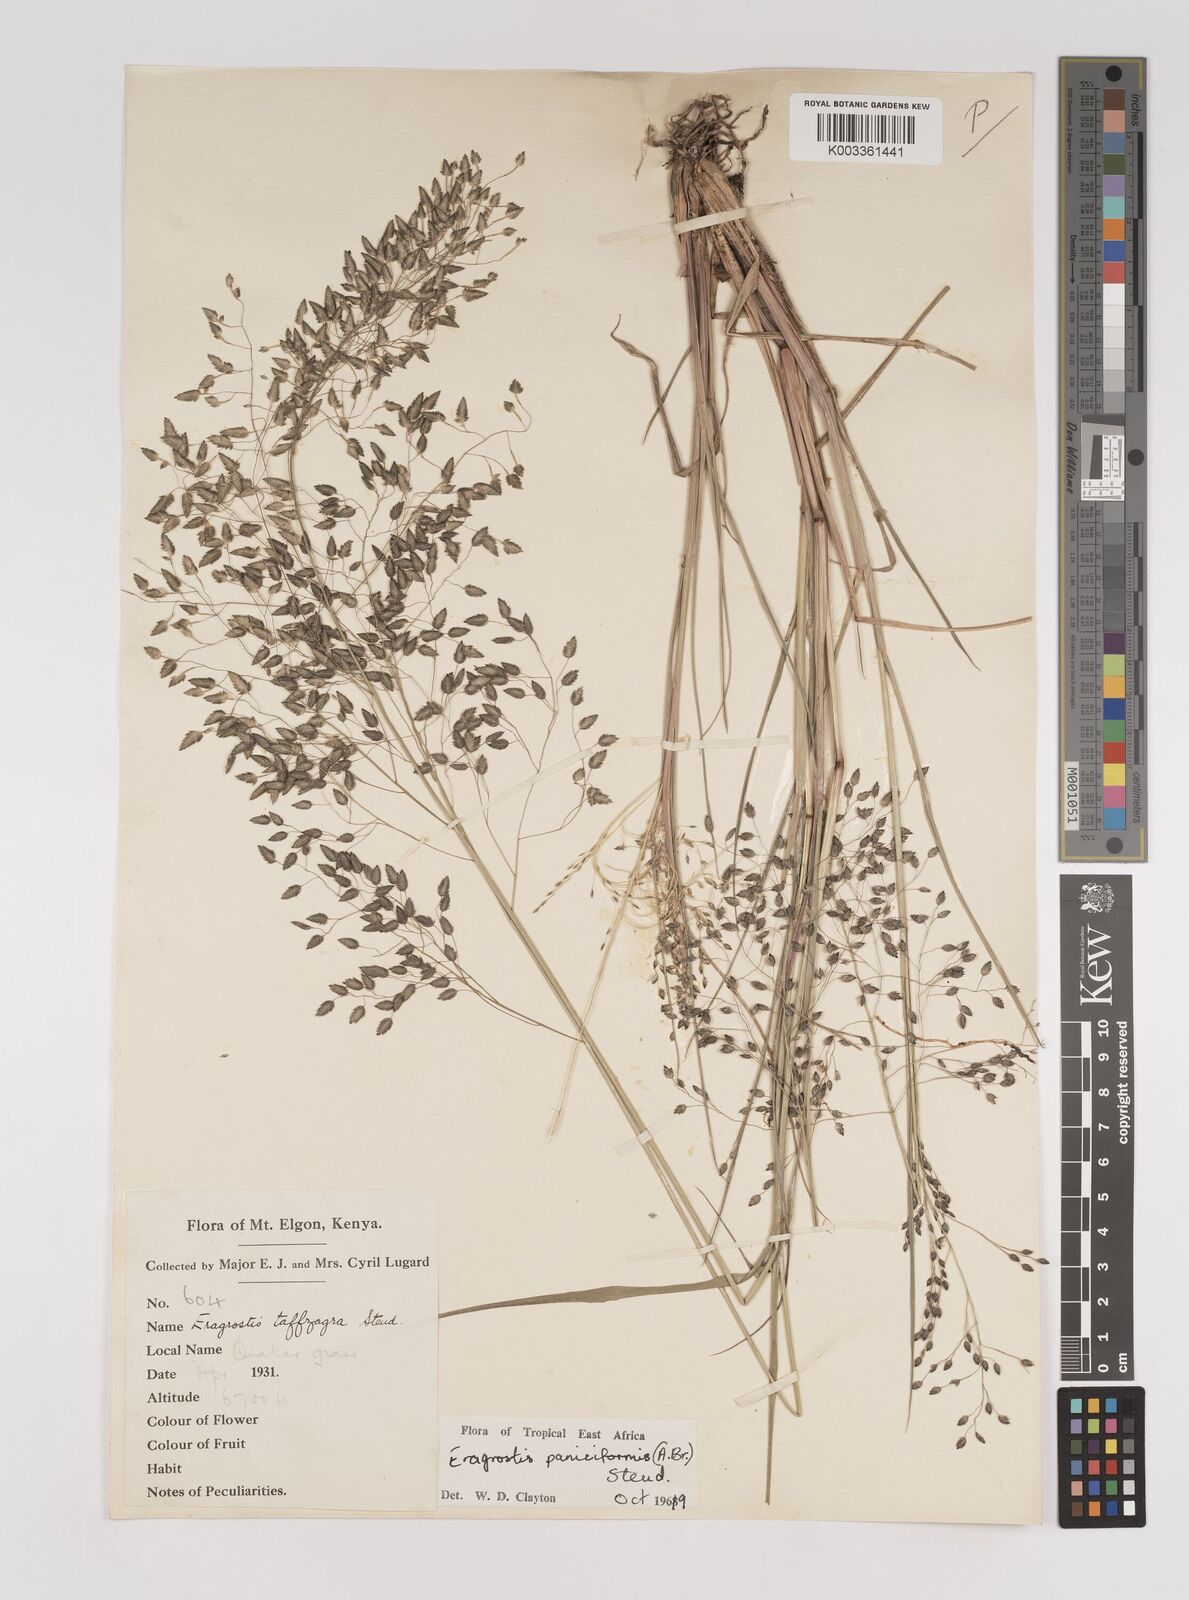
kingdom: Plantae
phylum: Tracheophyta
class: Liliopsida
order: Poales
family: Poaceae
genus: Eragrostis
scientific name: Eragrostis paniciformis
